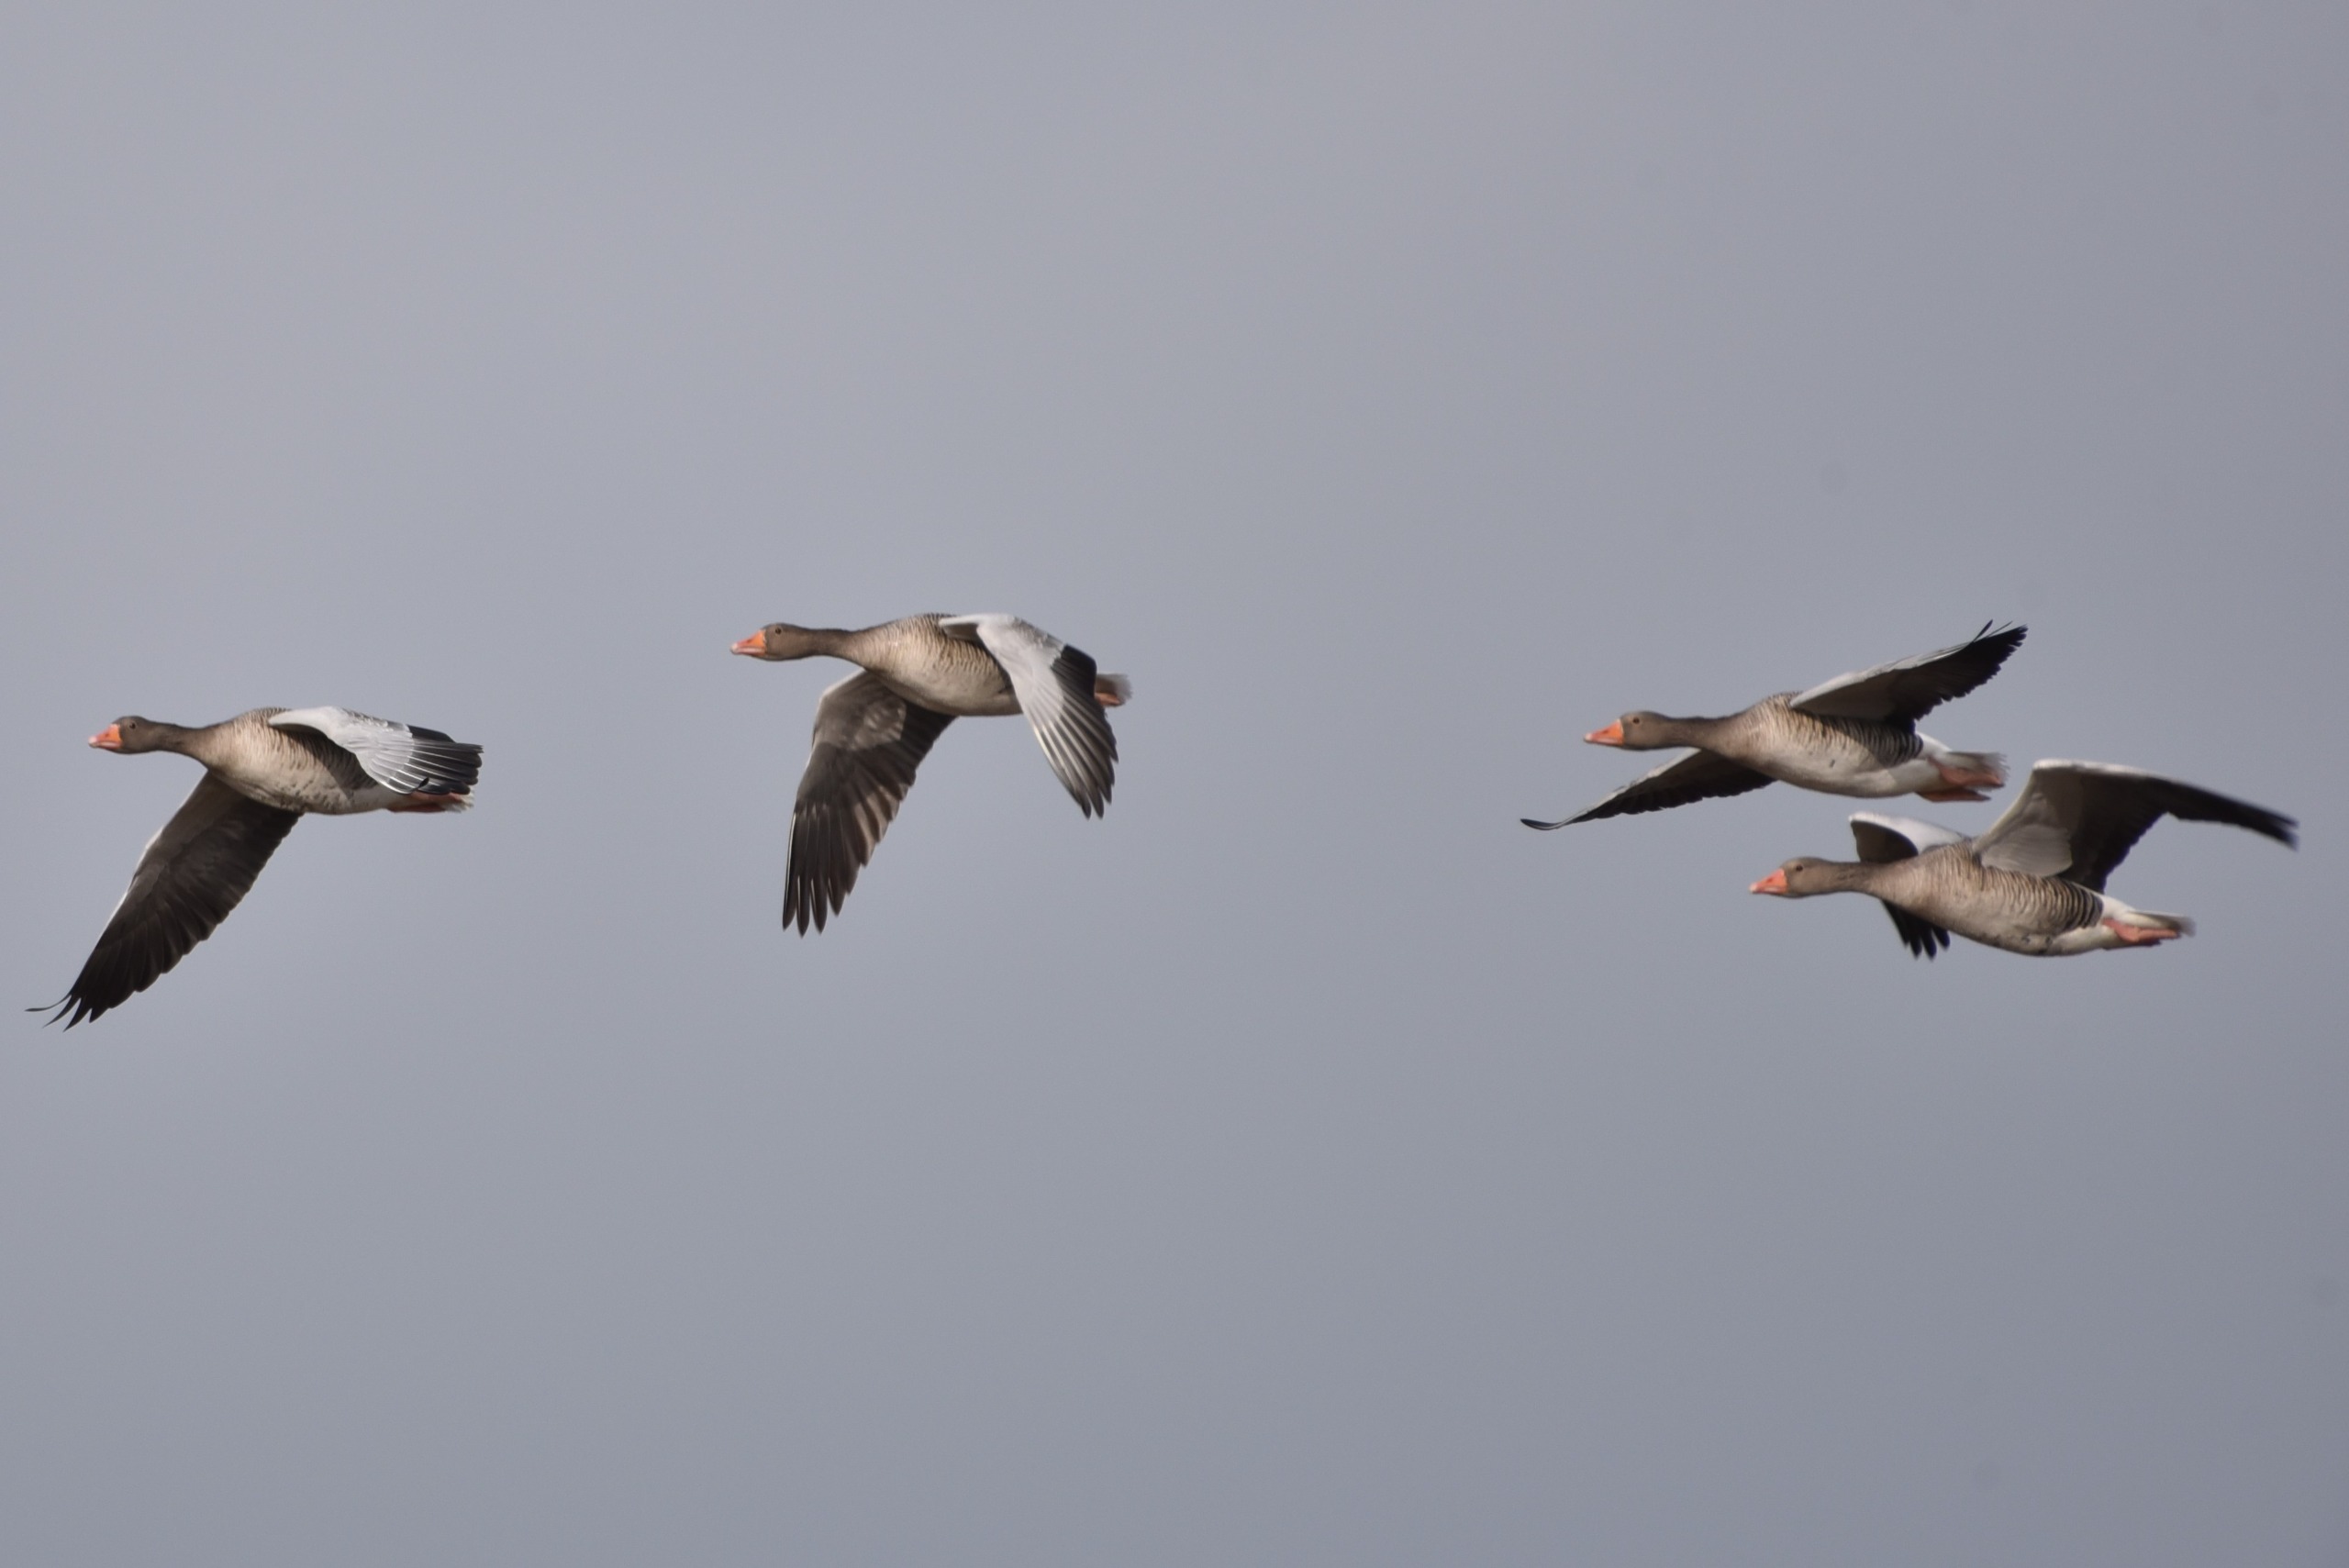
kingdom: Animalia
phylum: Chordata
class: Aves
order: Anseriformes
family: Anatidae
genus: Anser
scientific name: Anser anser
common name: Grågås
